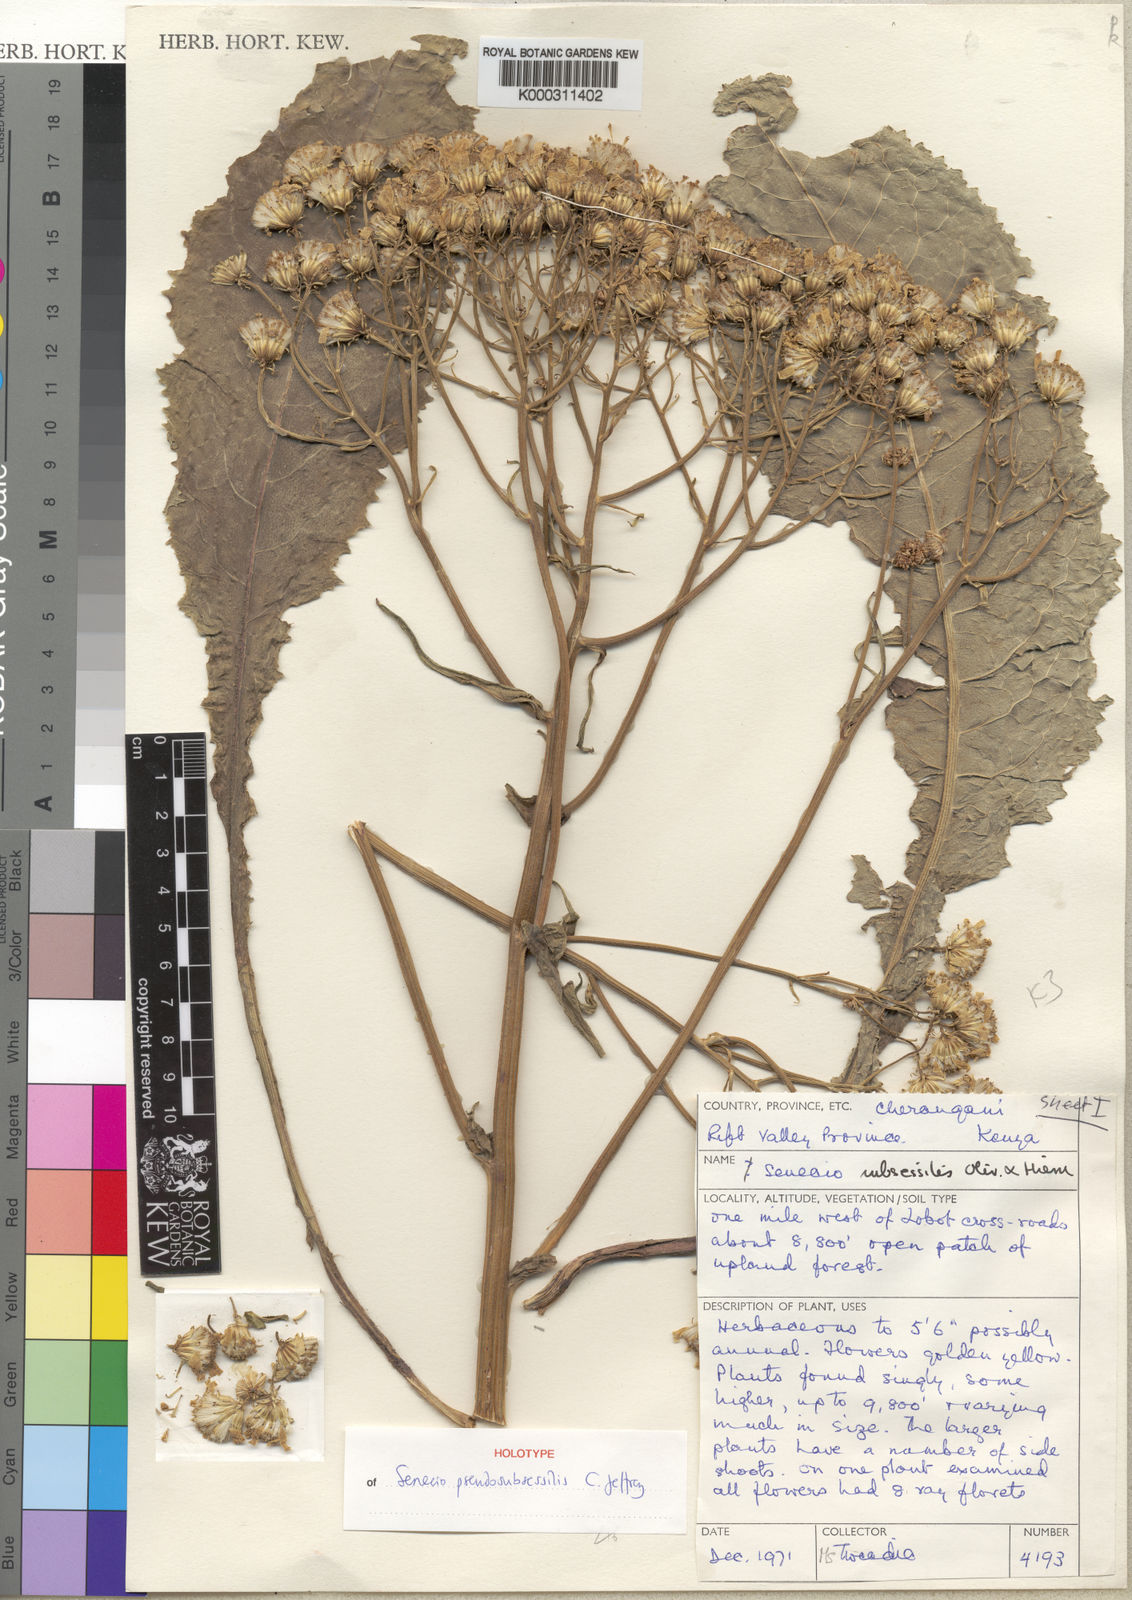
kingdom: Plantae
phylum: Tracheophyta
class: Magnoliopsida
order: Asterales
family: Asteraceae
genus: Senecio
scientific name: Senecio pseudosubsessilis
